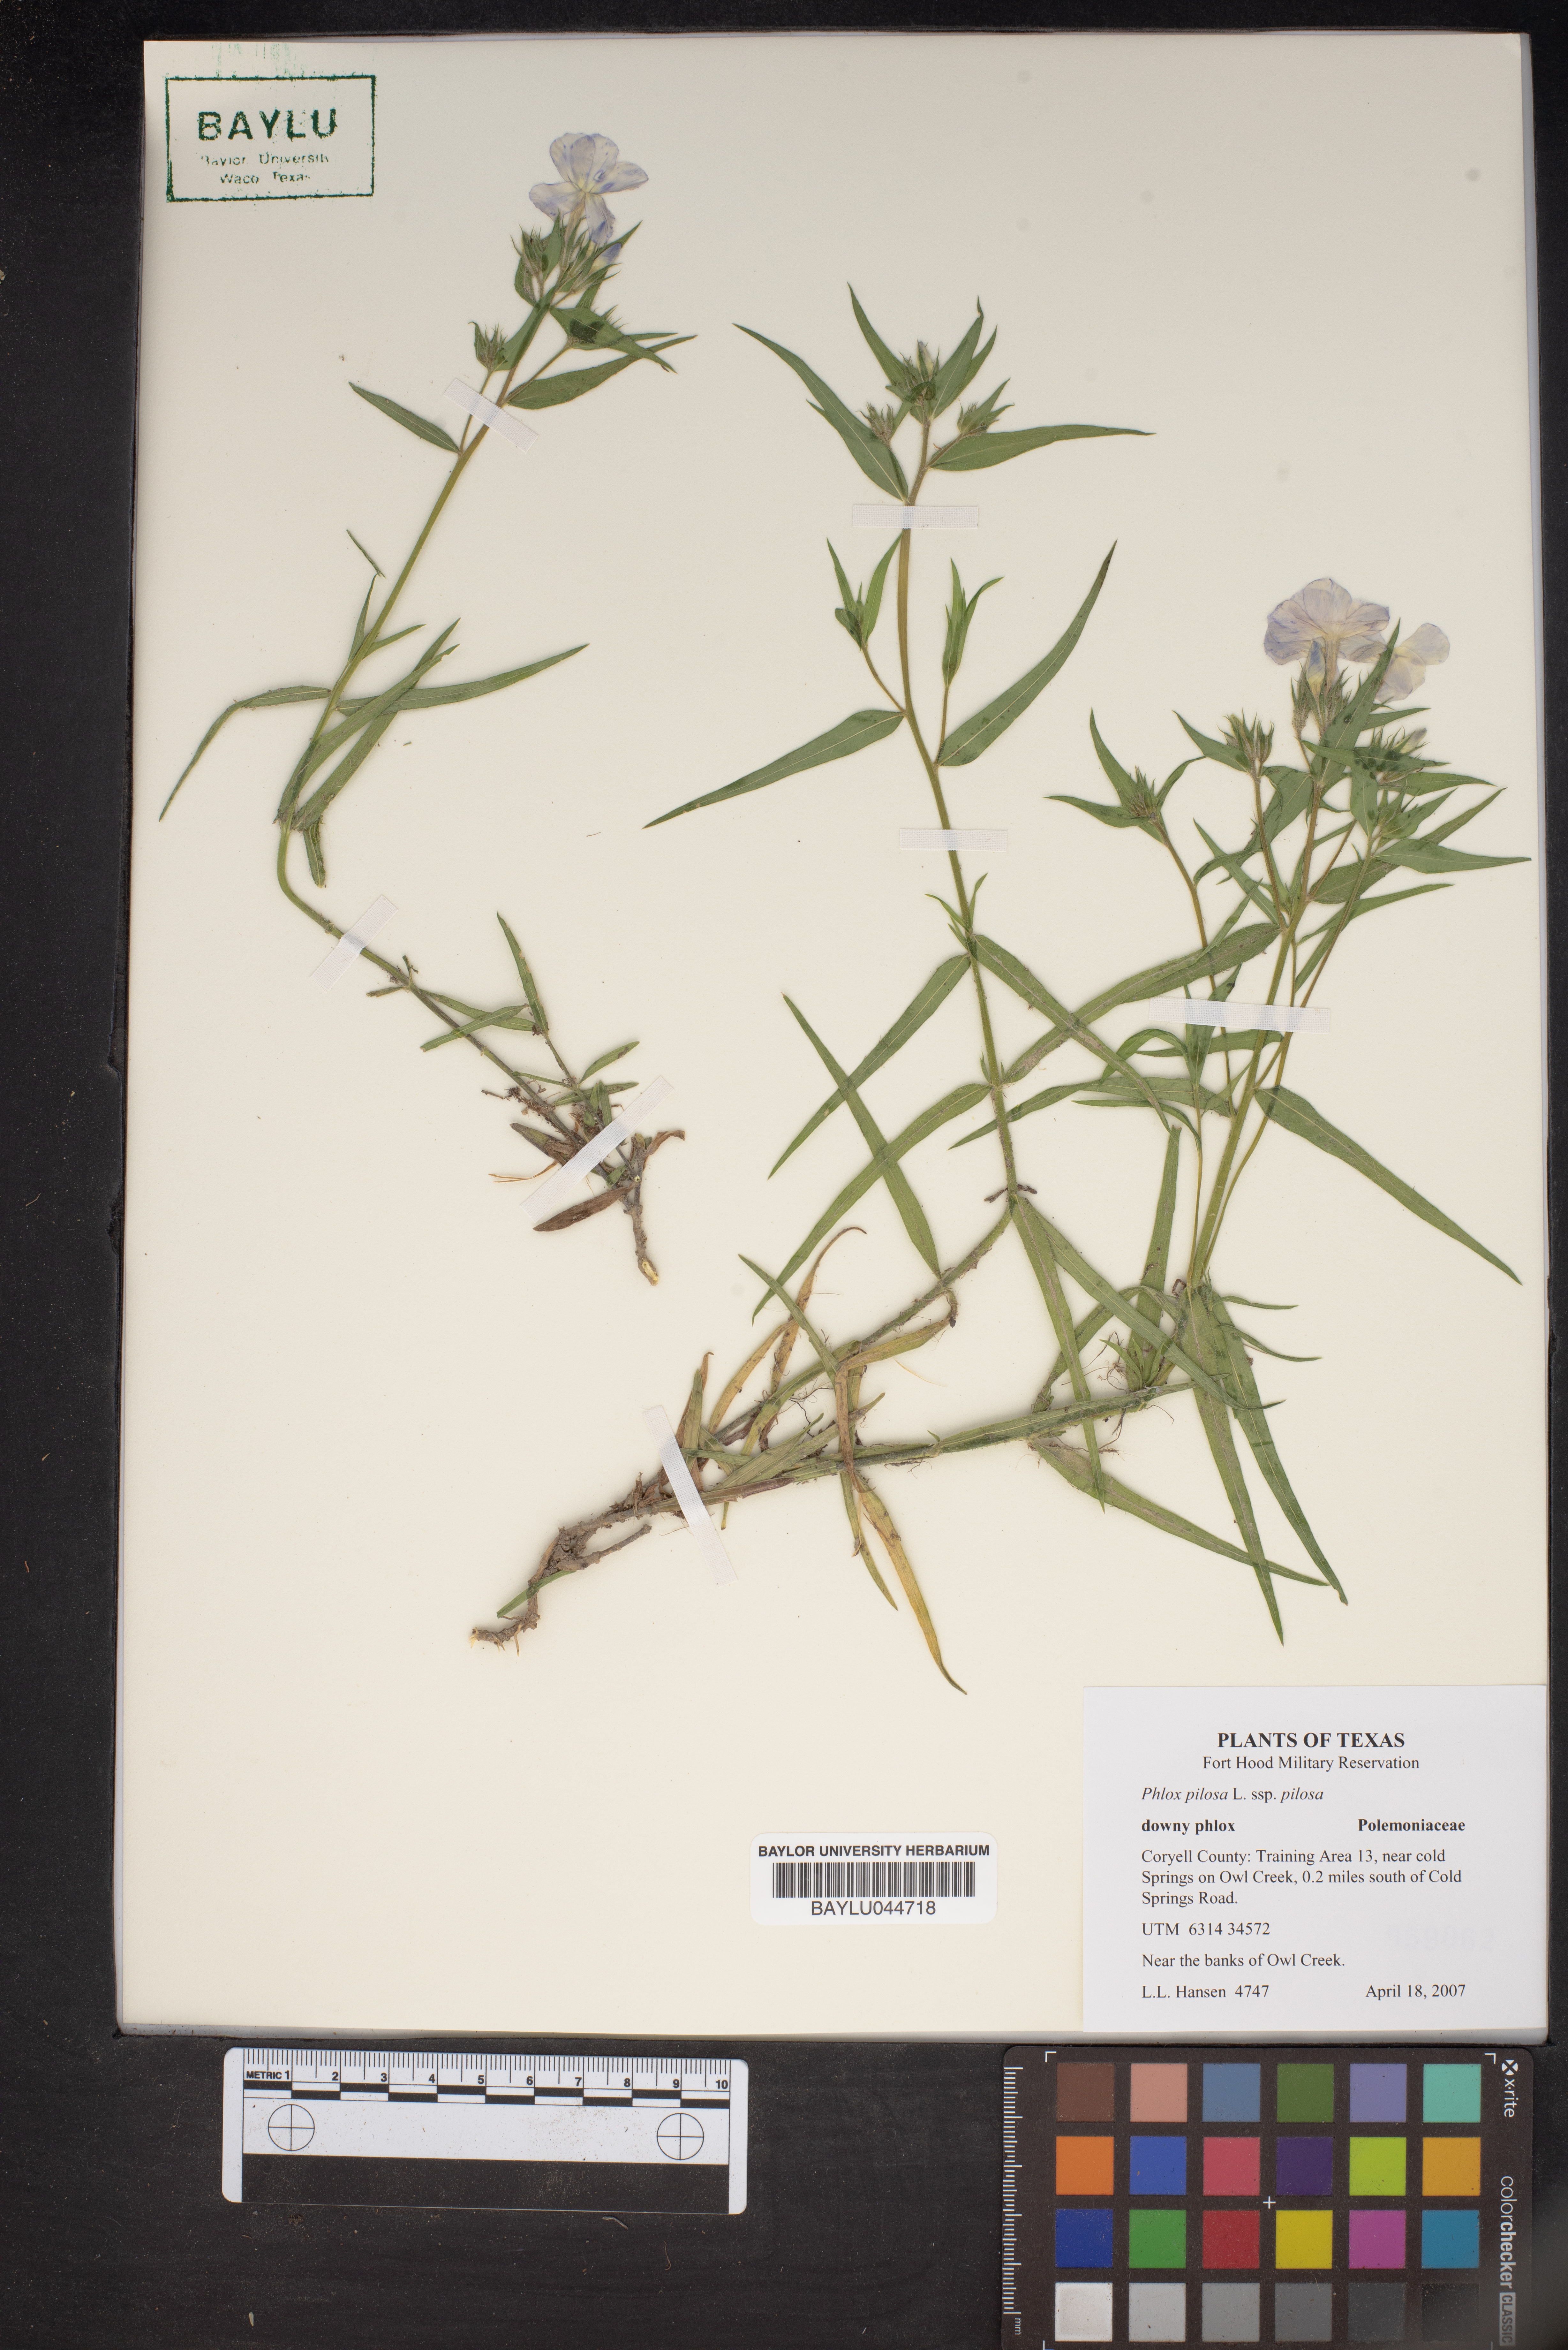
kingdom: Plantae
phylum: Tracheophyta
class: Magnoliopsida
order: Ericales
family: Polemoniaceae
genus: Phlox
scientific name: Phlox pilosa
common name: Prairie phlox
